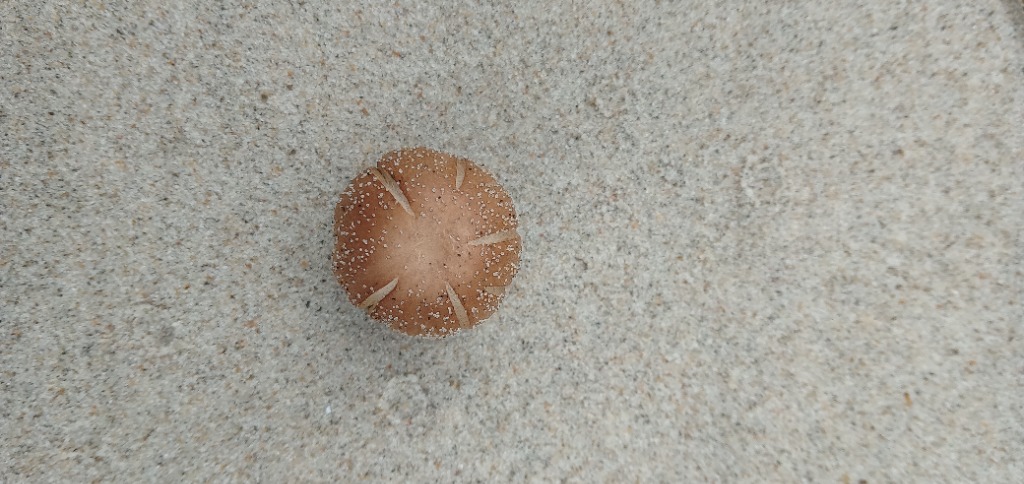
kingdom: Fungi
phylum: Basidiomycota
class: Agaricomycetes
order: Agaricales
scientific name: Agaricales
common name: champignonordenen
